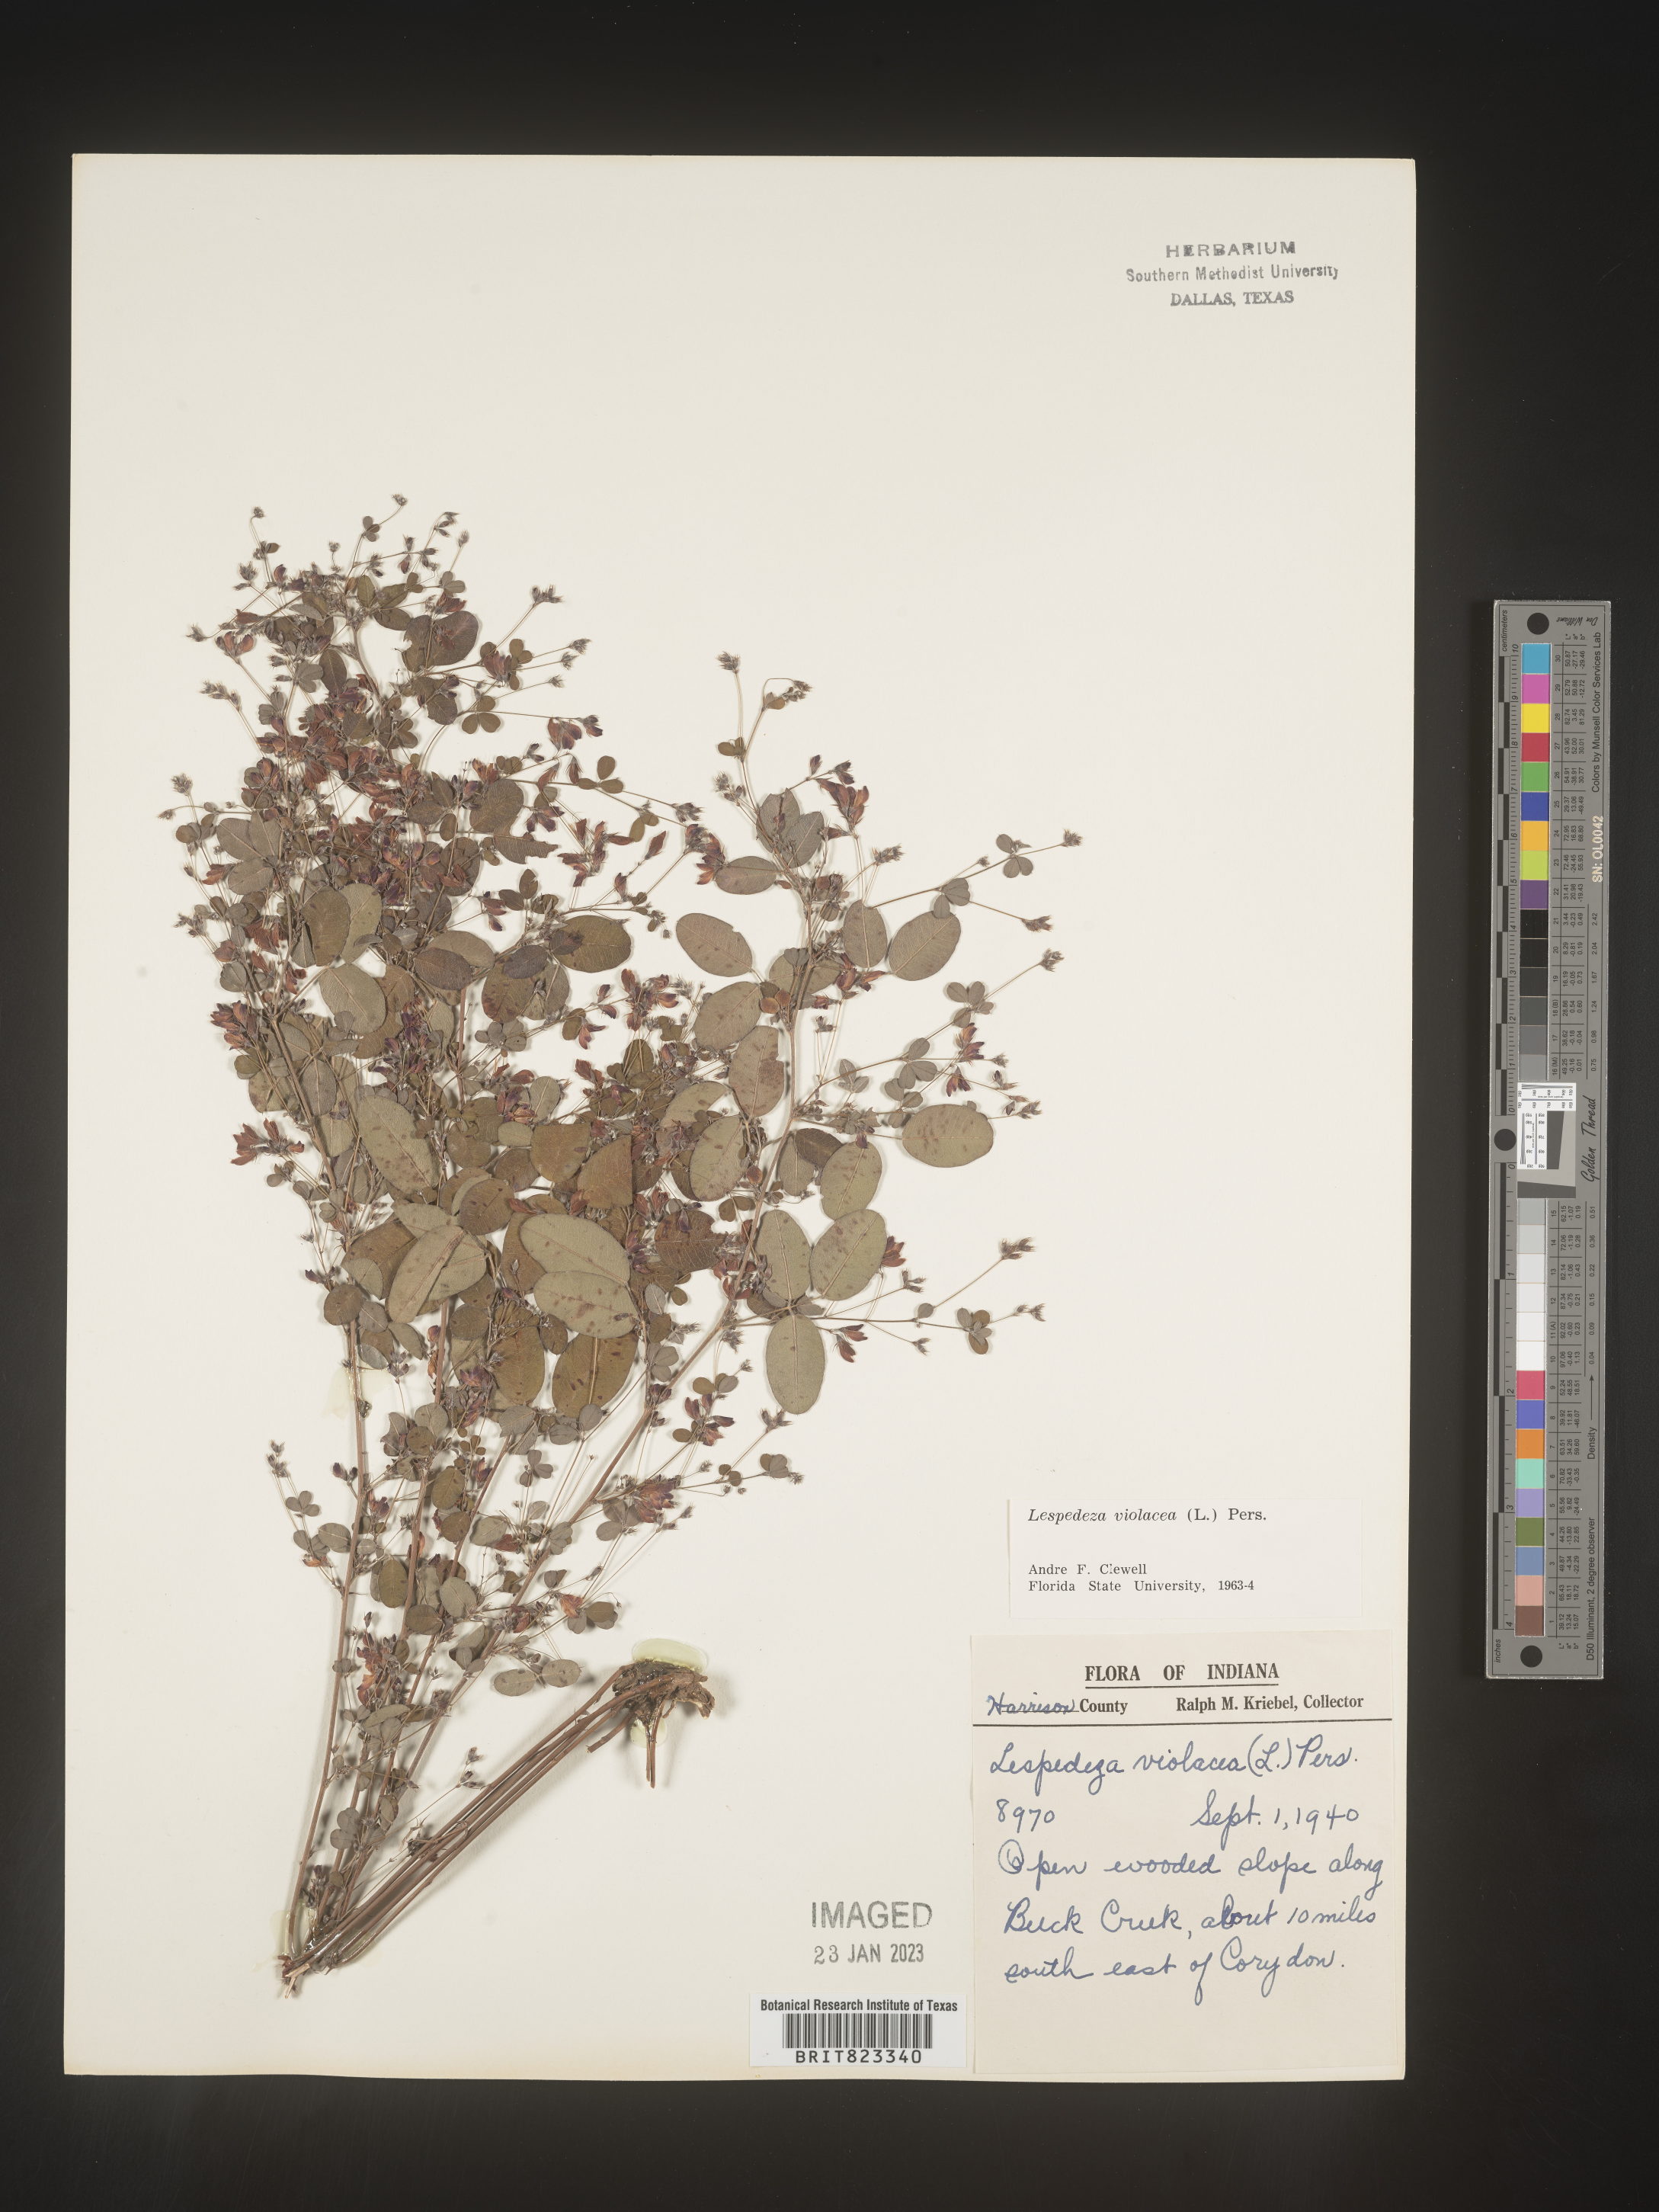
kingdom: Plantae
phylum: Tracheophyta
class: Magnoliopsida
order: Fabales
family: Fabaceae
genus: Lespedeza
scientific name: Lespedeza violacea
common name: Wand bush-clover
